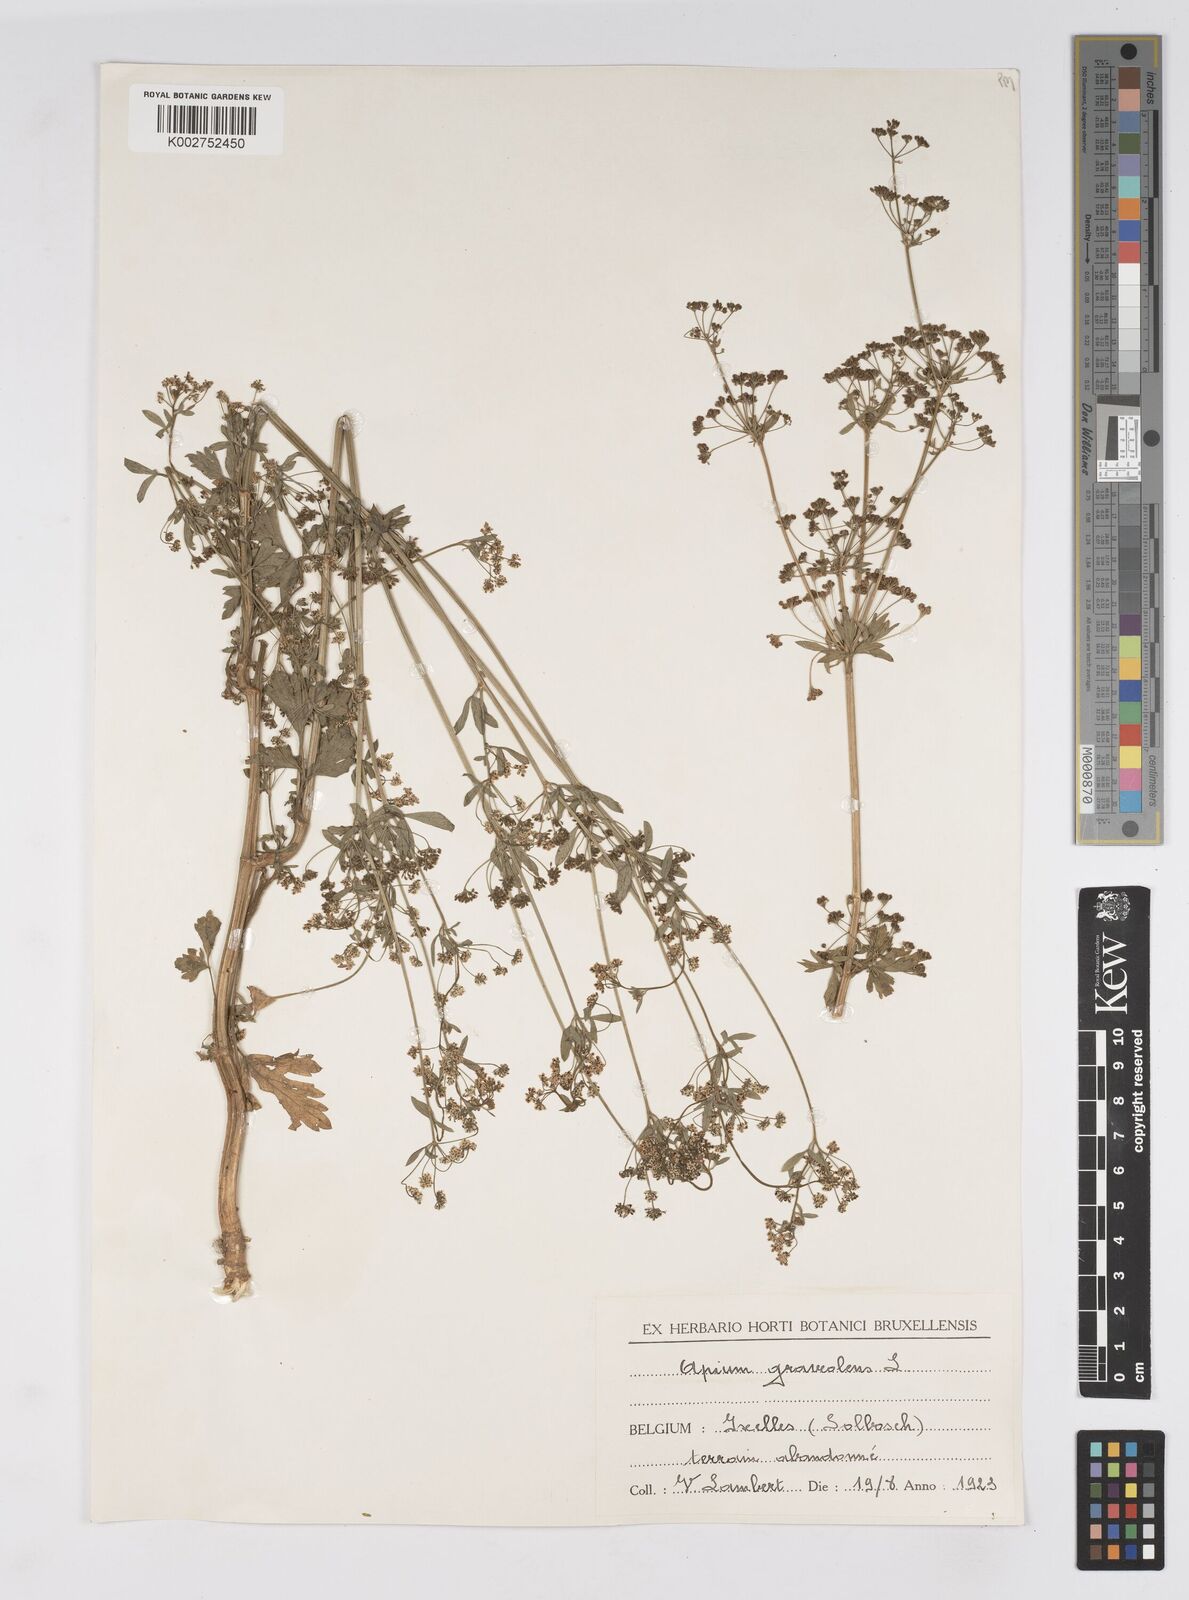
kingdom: Plantae
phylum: Tracheophyta
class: Magnoliopsida
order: Apiales
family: Apiaceae
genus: Apium
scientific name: Apium graveolens
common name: Wild celery
